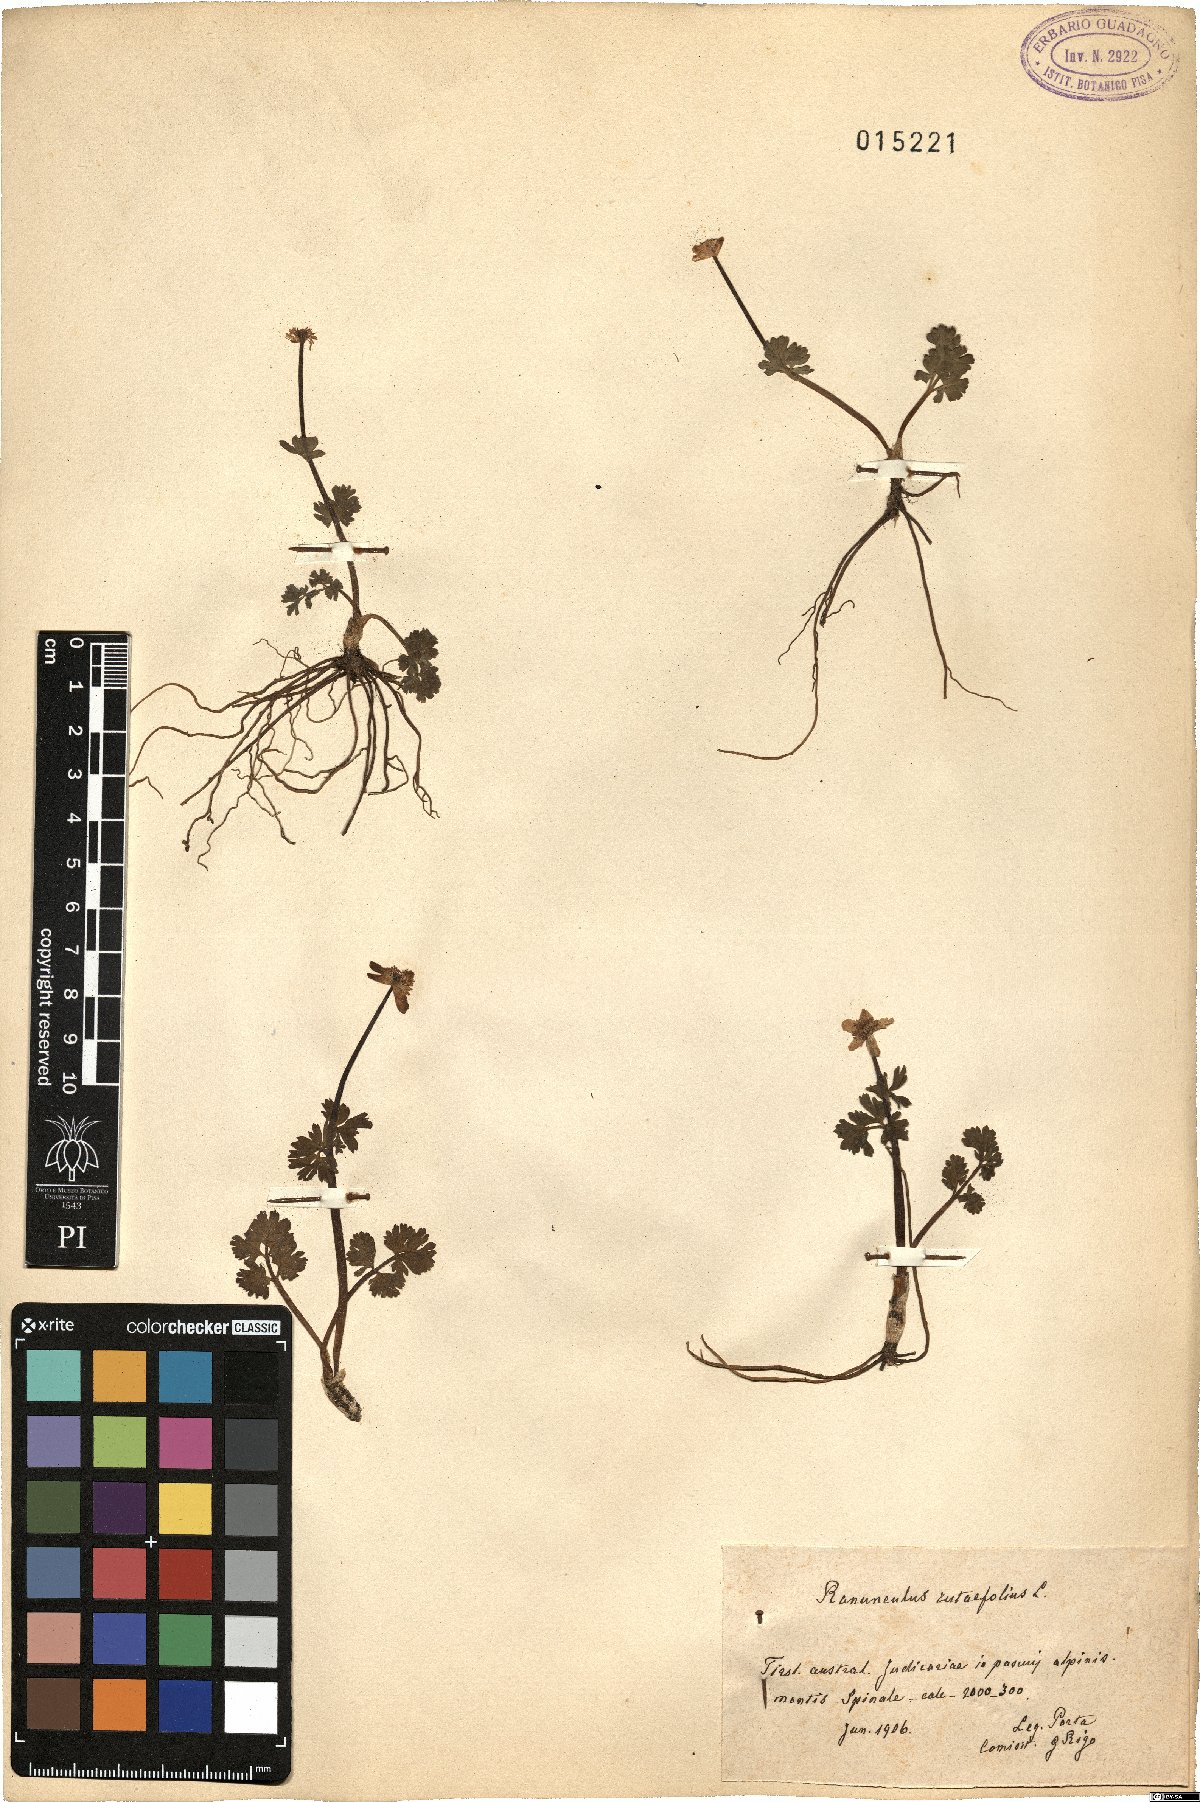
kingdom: Plantae
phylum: Tracheophyta
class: Magnoliopsida
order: Ranunculales
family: Ranunculaceae
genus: Callianthemum
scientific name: Callianthemum anemonoides
